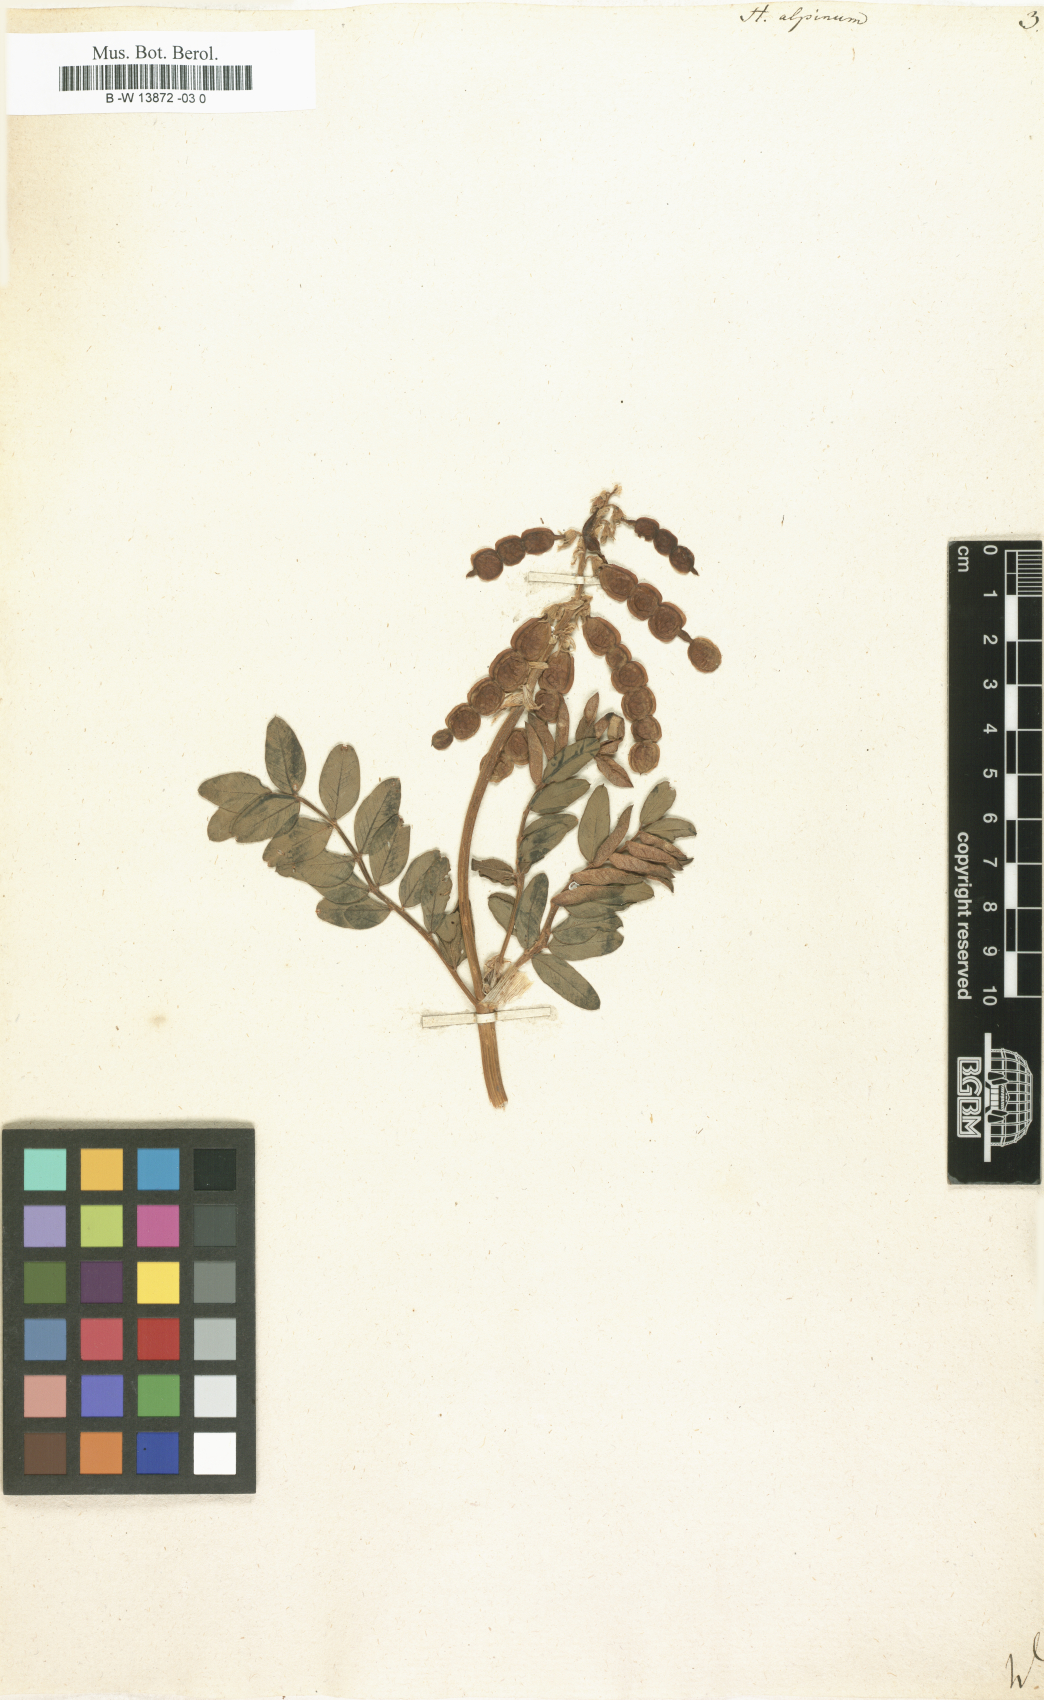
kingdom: Plantae
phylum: Tracheophyta
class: Magnoliopsida
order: Fabales
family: Fabaceae
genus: Hedysarum
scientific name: Hedysarum alpinum
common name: Alpine sweet-vetch
